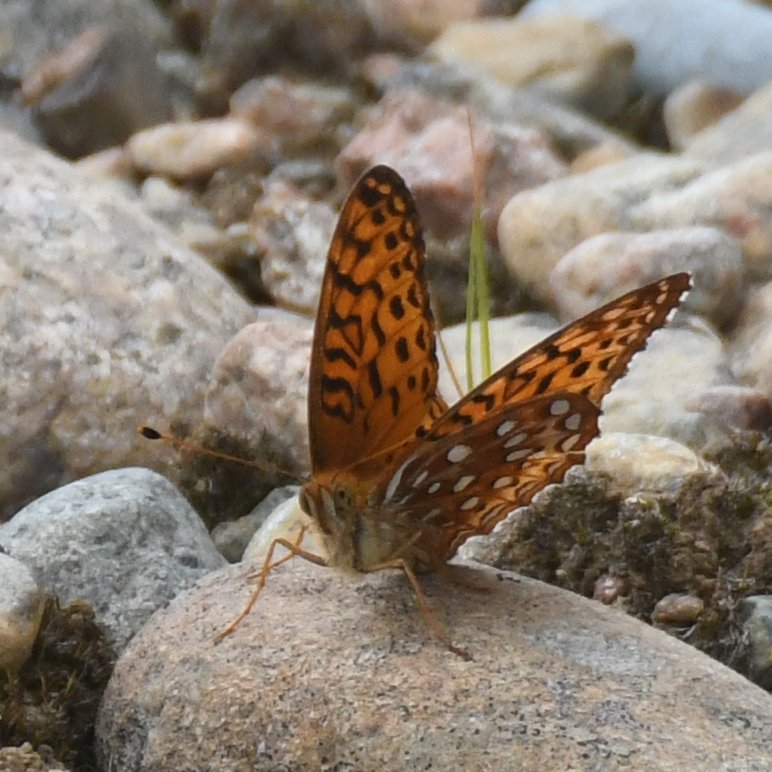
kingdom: Animalia
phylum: Arthropoda
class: Insecta
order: Lepidoptera
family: Nymphalidae
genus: Speyeria
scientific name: Speyeria aphrodite
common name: Aphrodite Fritillary
